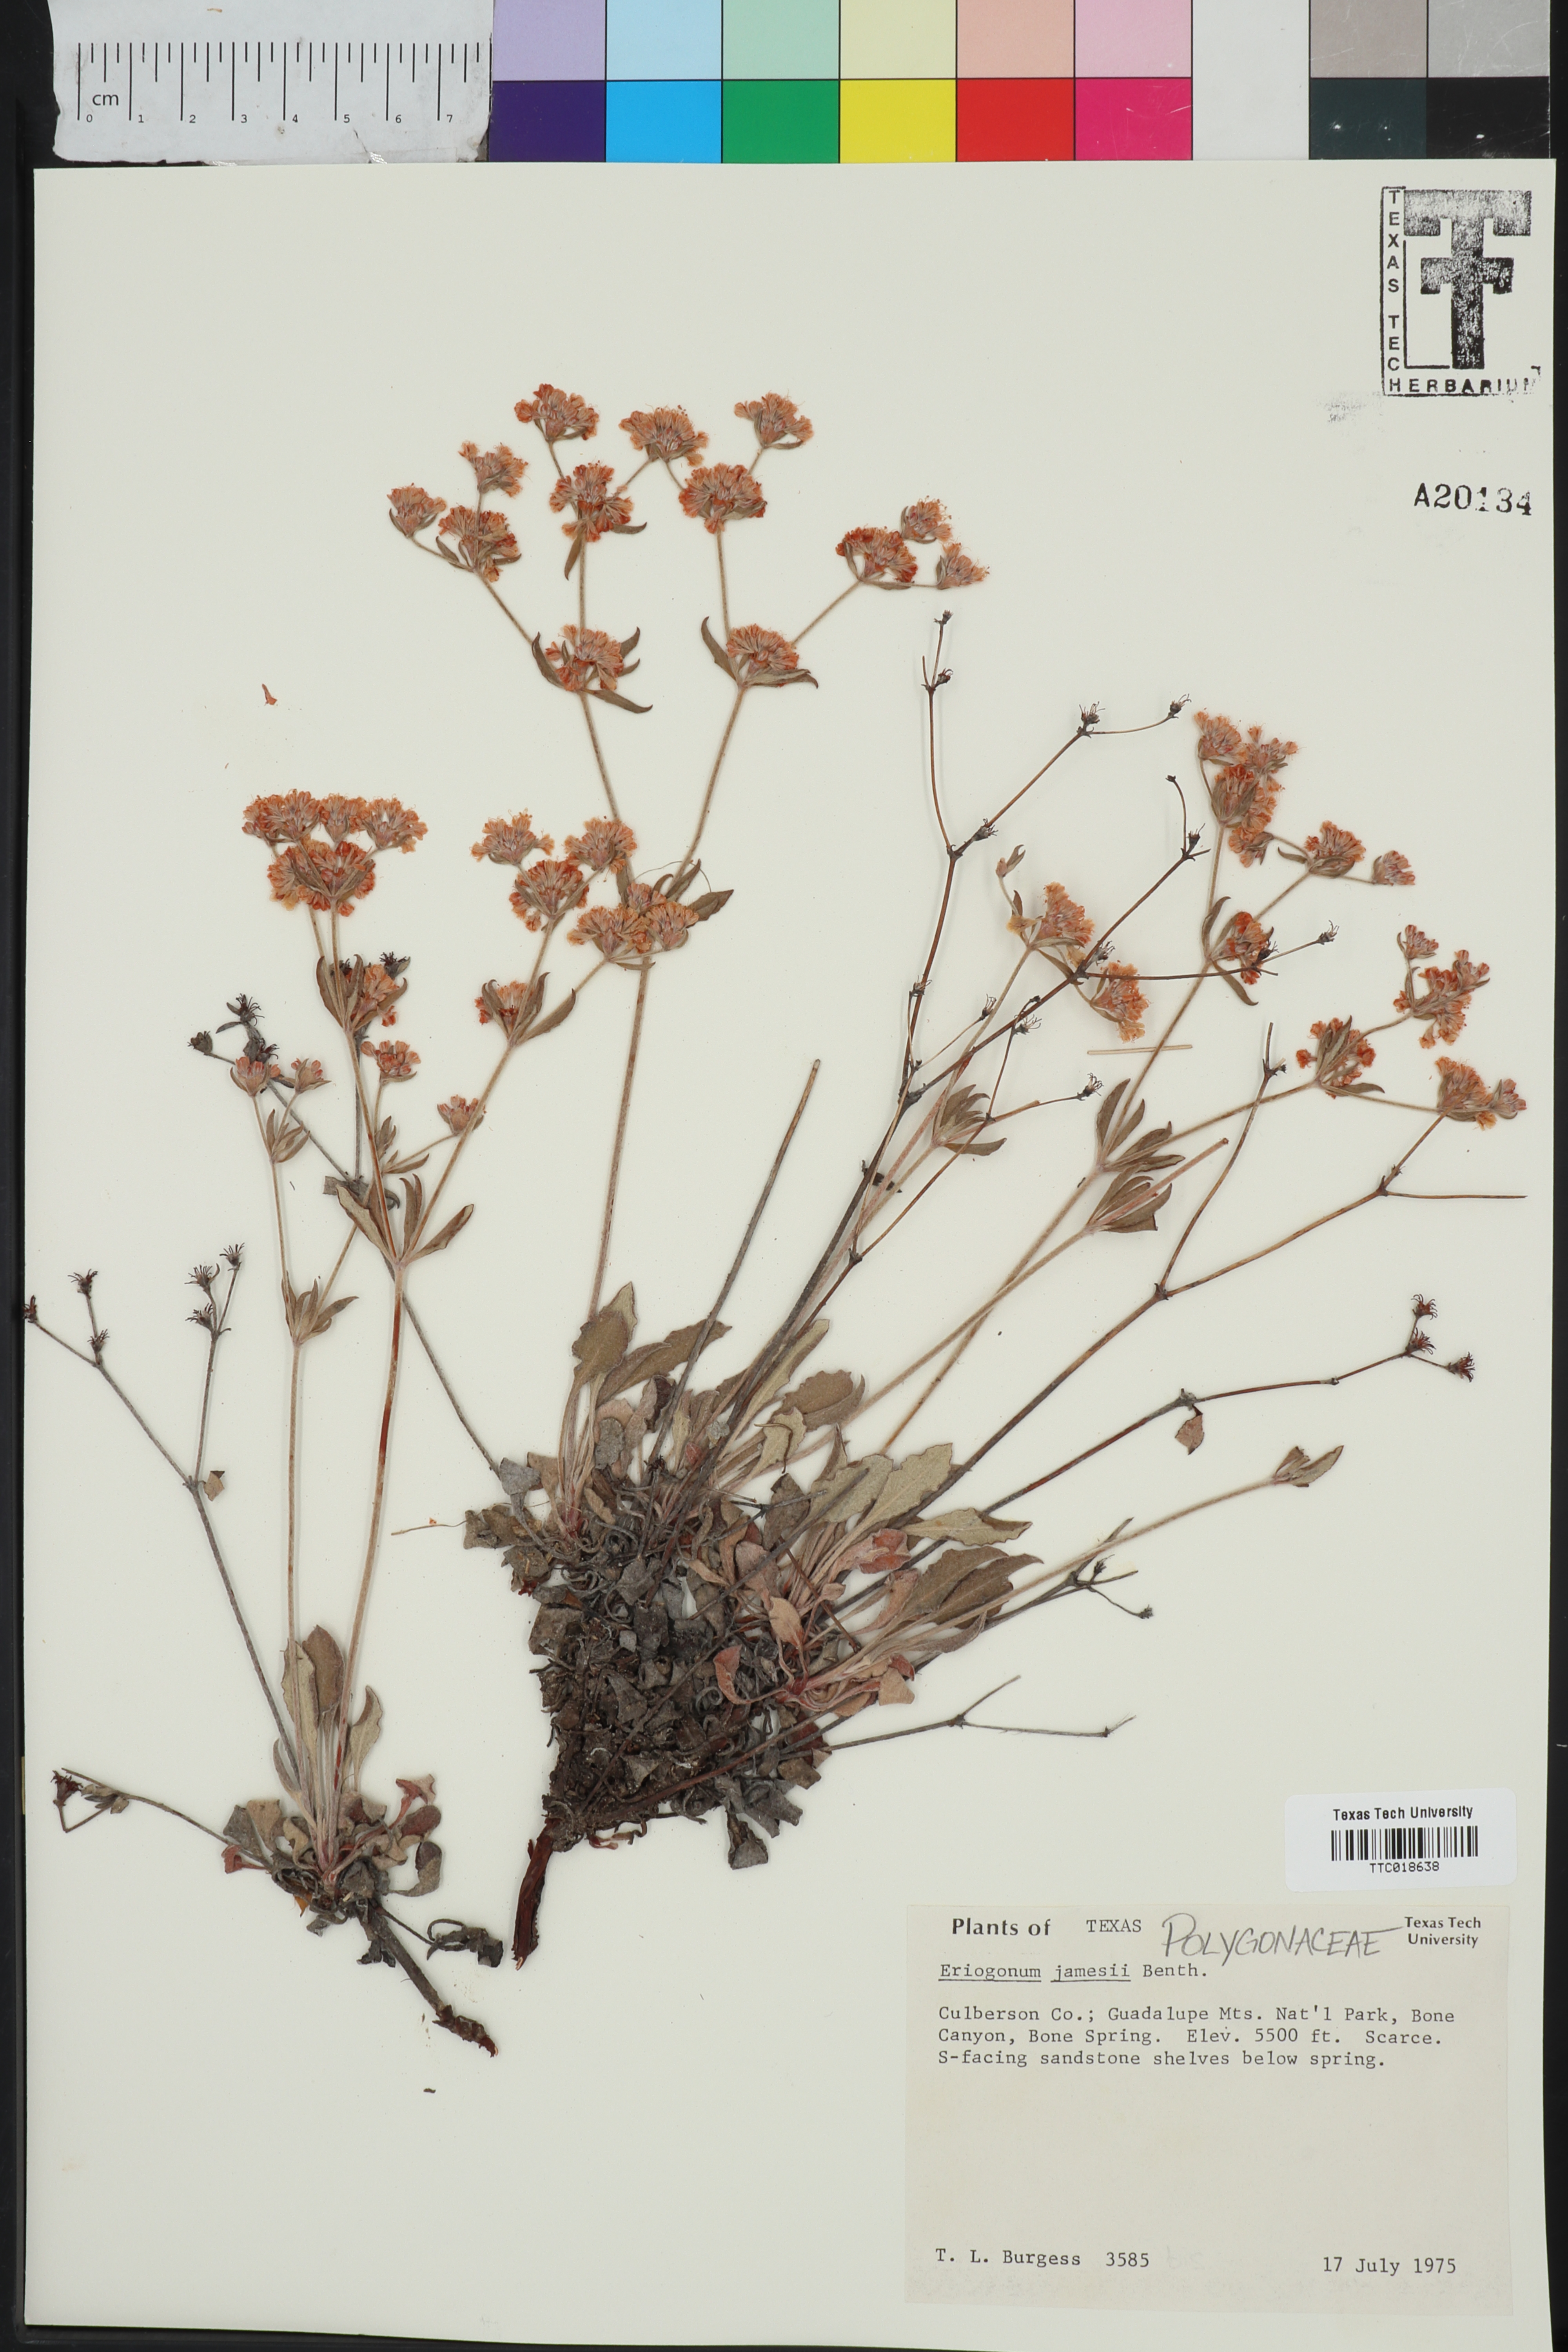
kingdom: Plantae
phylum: Tracheophyta
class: Magnoliopsida
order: Caryophyllales
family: Polygonaceae
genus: Eriogonum
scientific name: Eriogonum jamesii
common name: Antelope-sage
